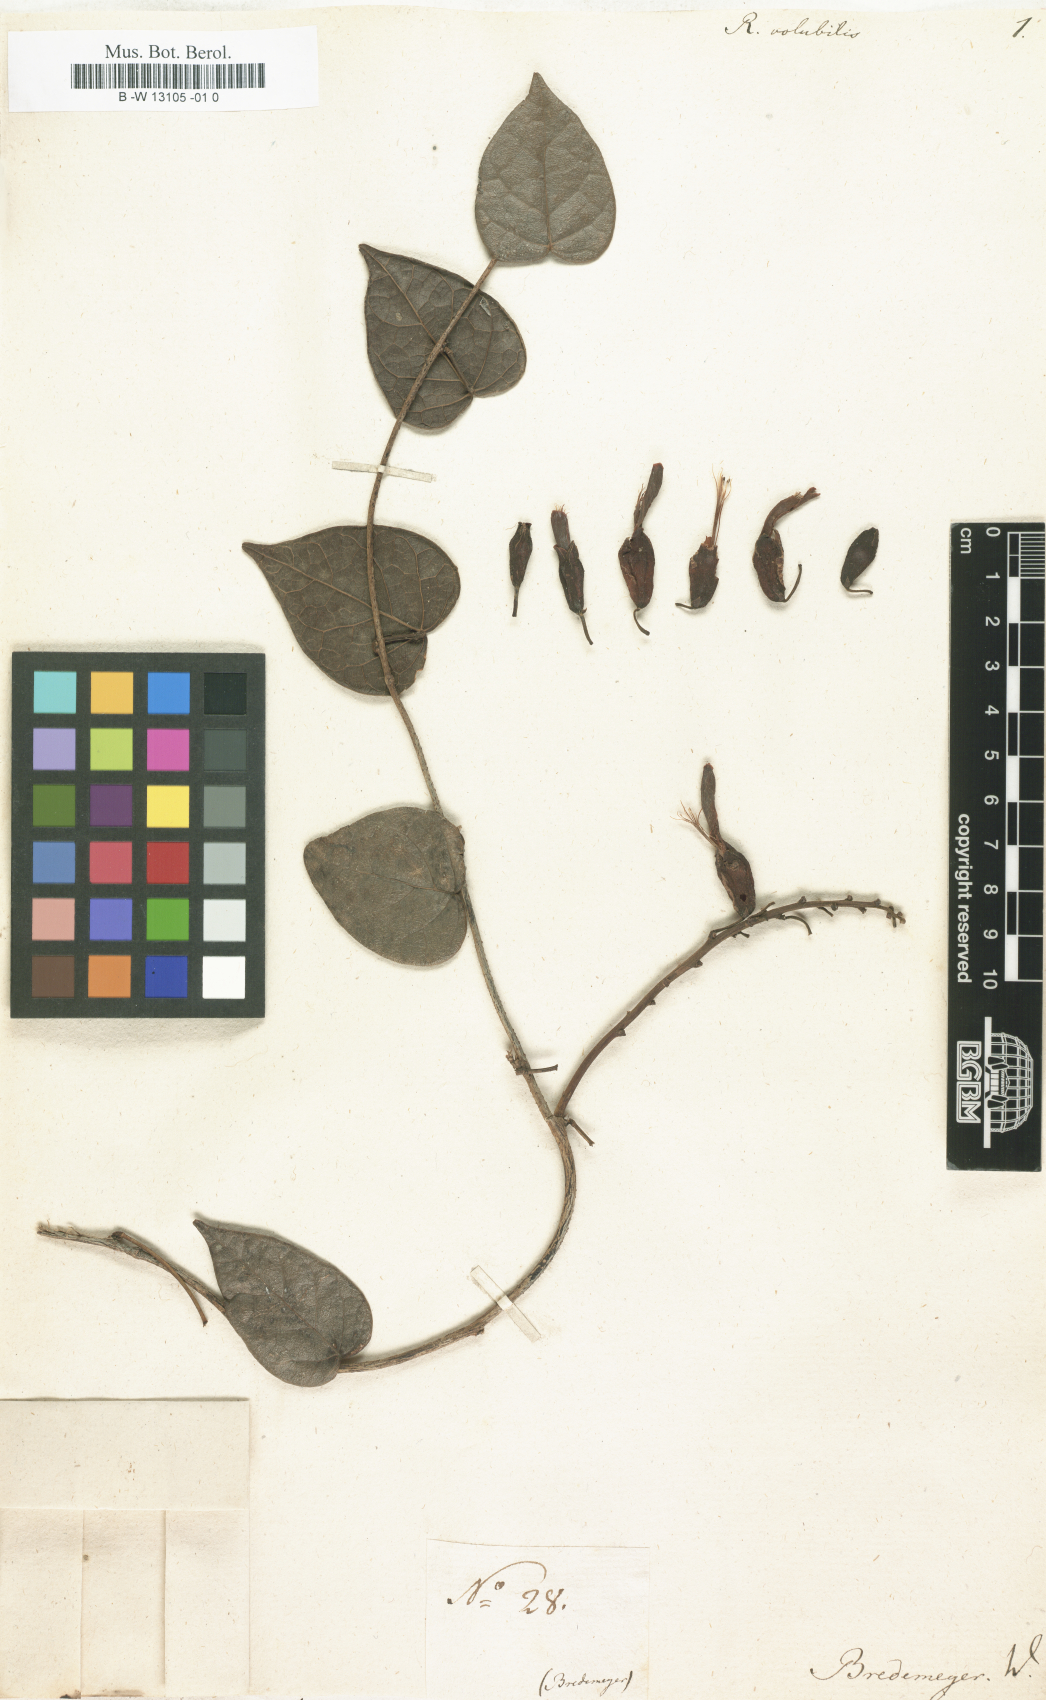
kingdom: Plantae
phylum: Tracheophyta
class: Magnoliopsida
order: Fabales
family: Fabaceae
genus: Rhodopis
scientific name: Rhodopis volubilis
